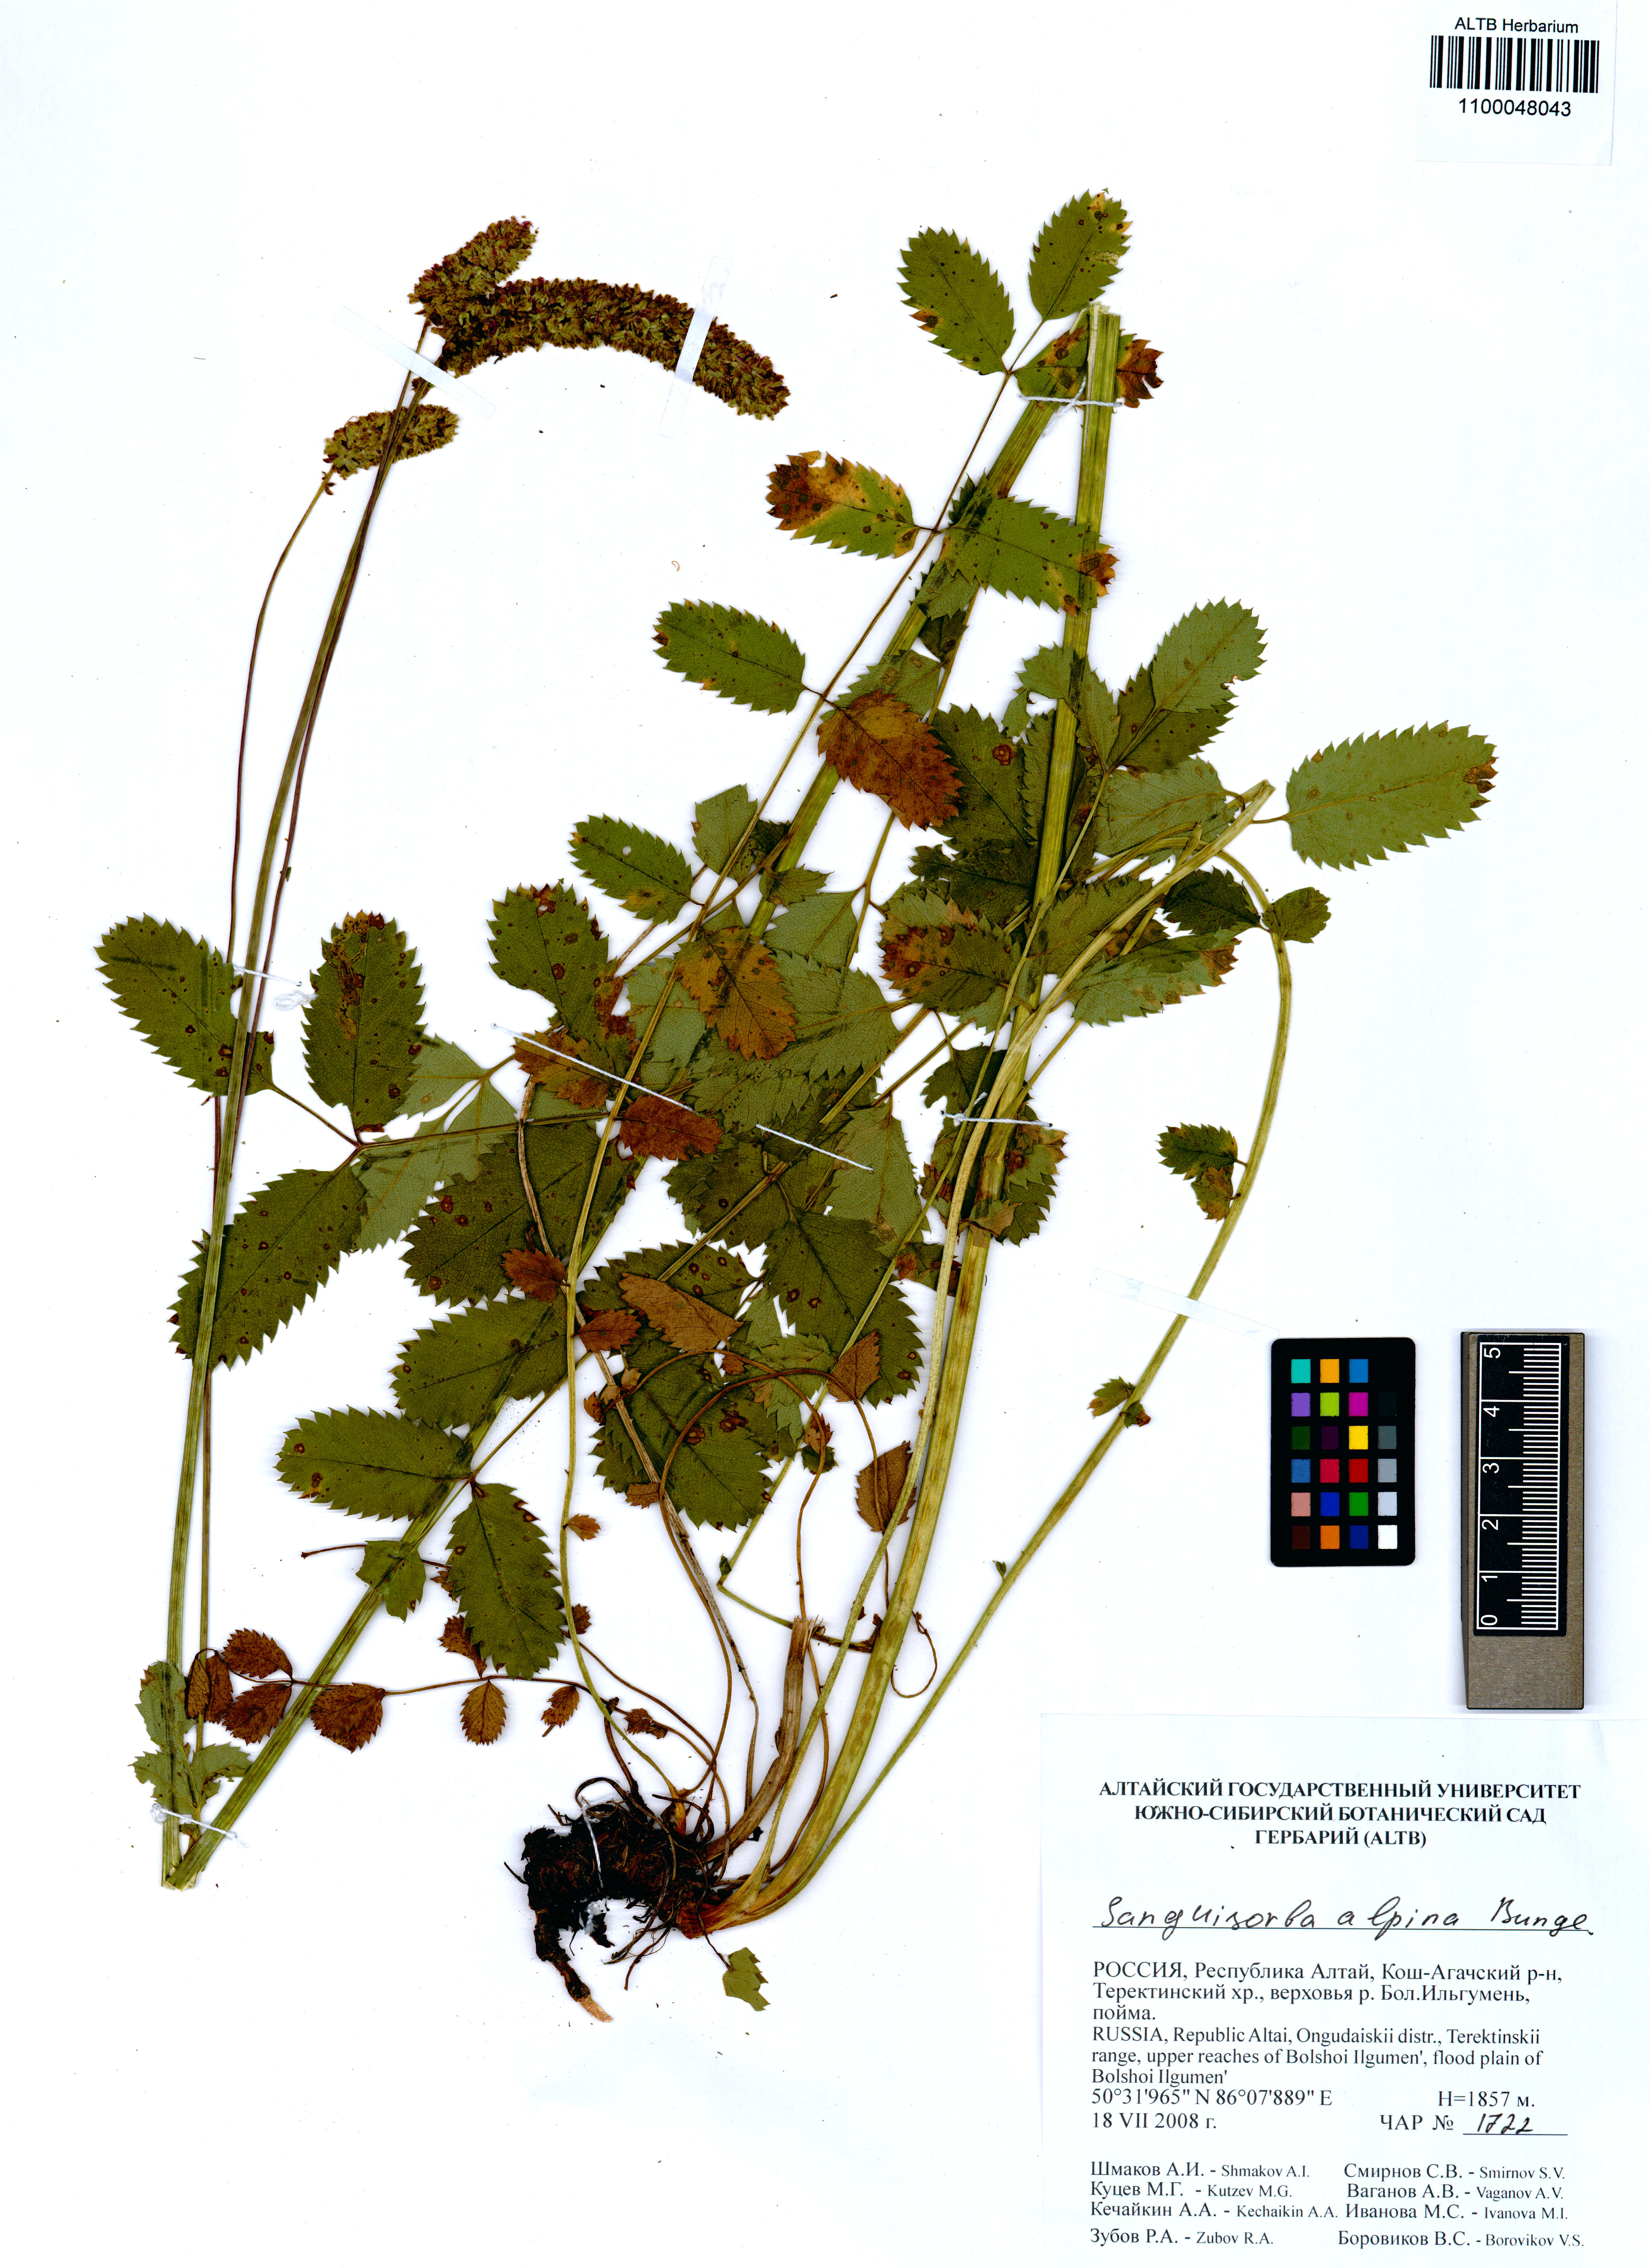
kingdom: Plantae
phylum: Tracheophyta
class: Magnoliopsida
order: Rosales
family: Rosaceae
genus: Sanguisorba
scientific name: Sanguisorba alpina
